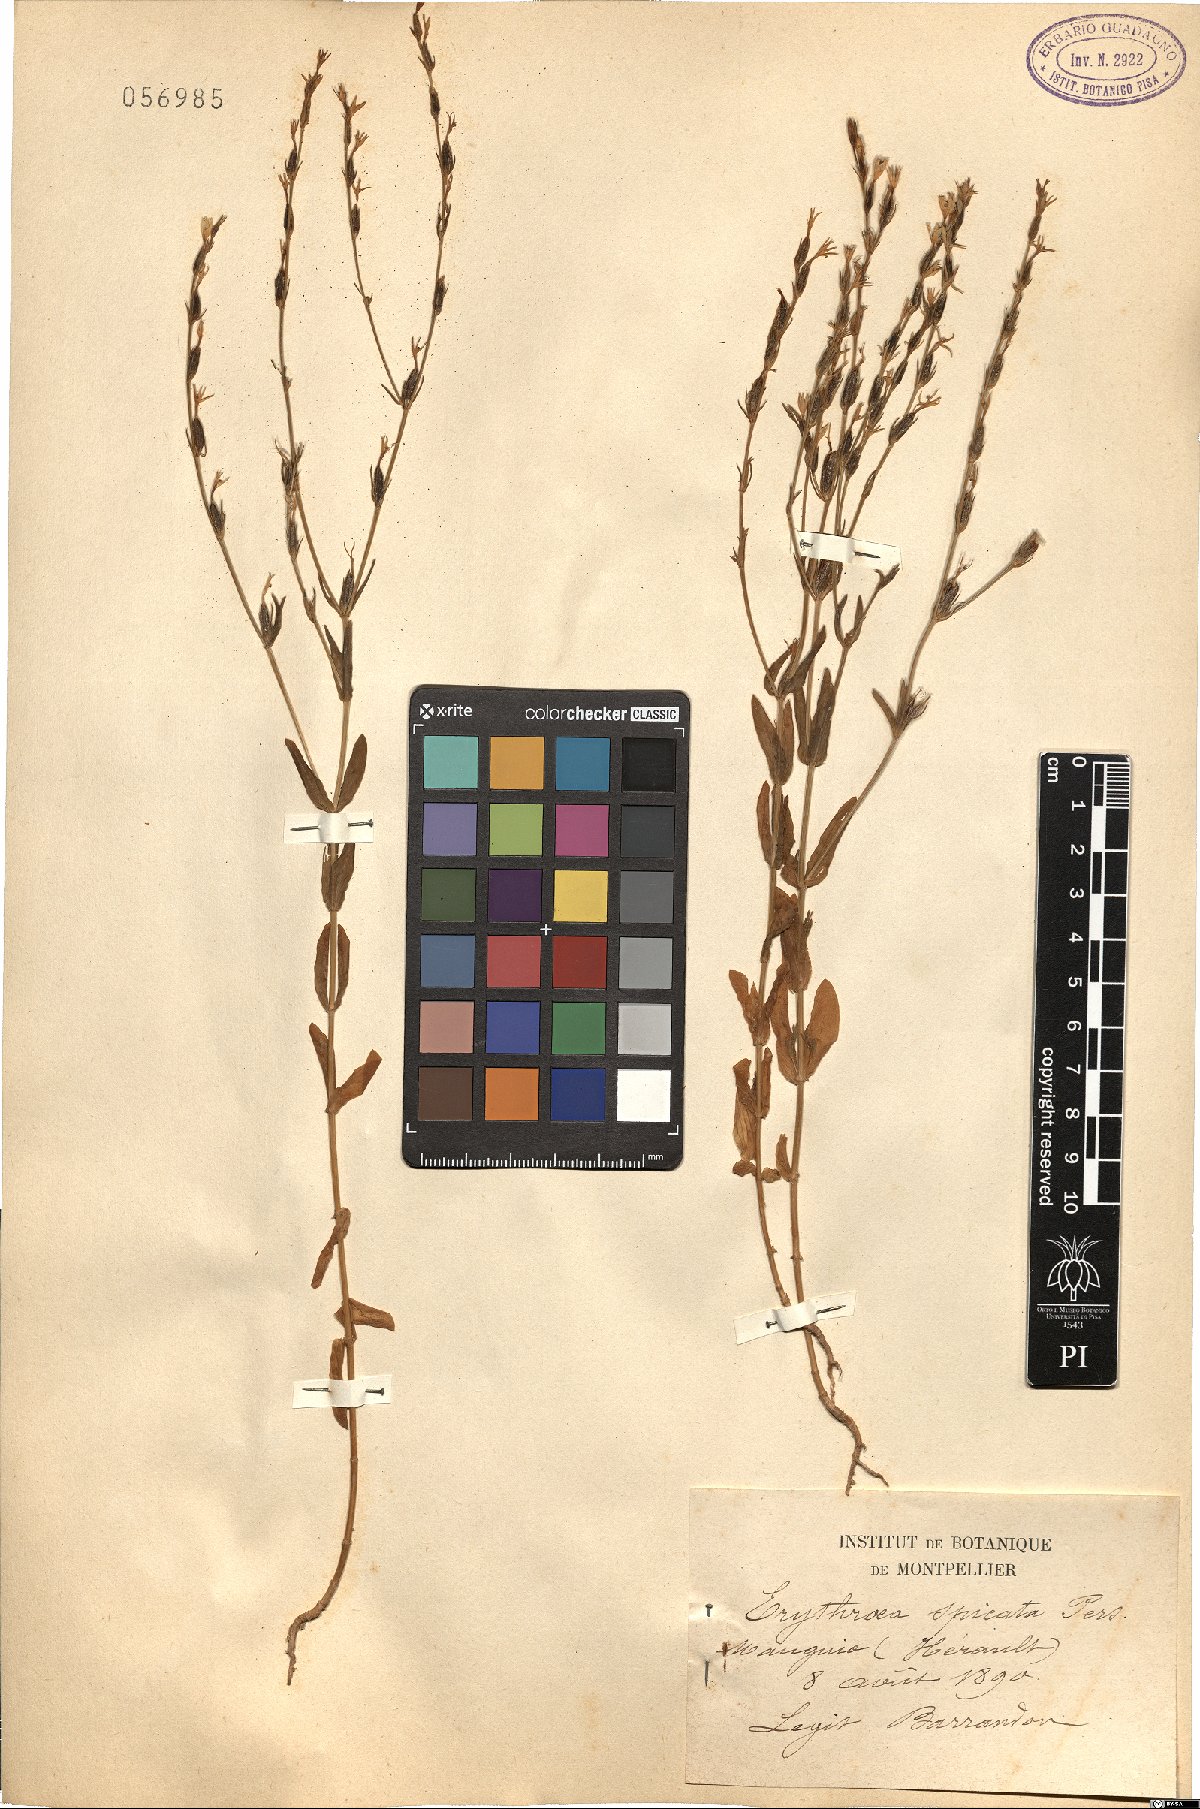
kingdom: Plantae
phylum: Tracheophyta
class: Magnoliopsida
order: Gentianales
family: Gentianaceae
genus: Schenkia
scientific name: Schenkia spicata
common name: Spiked centaury
